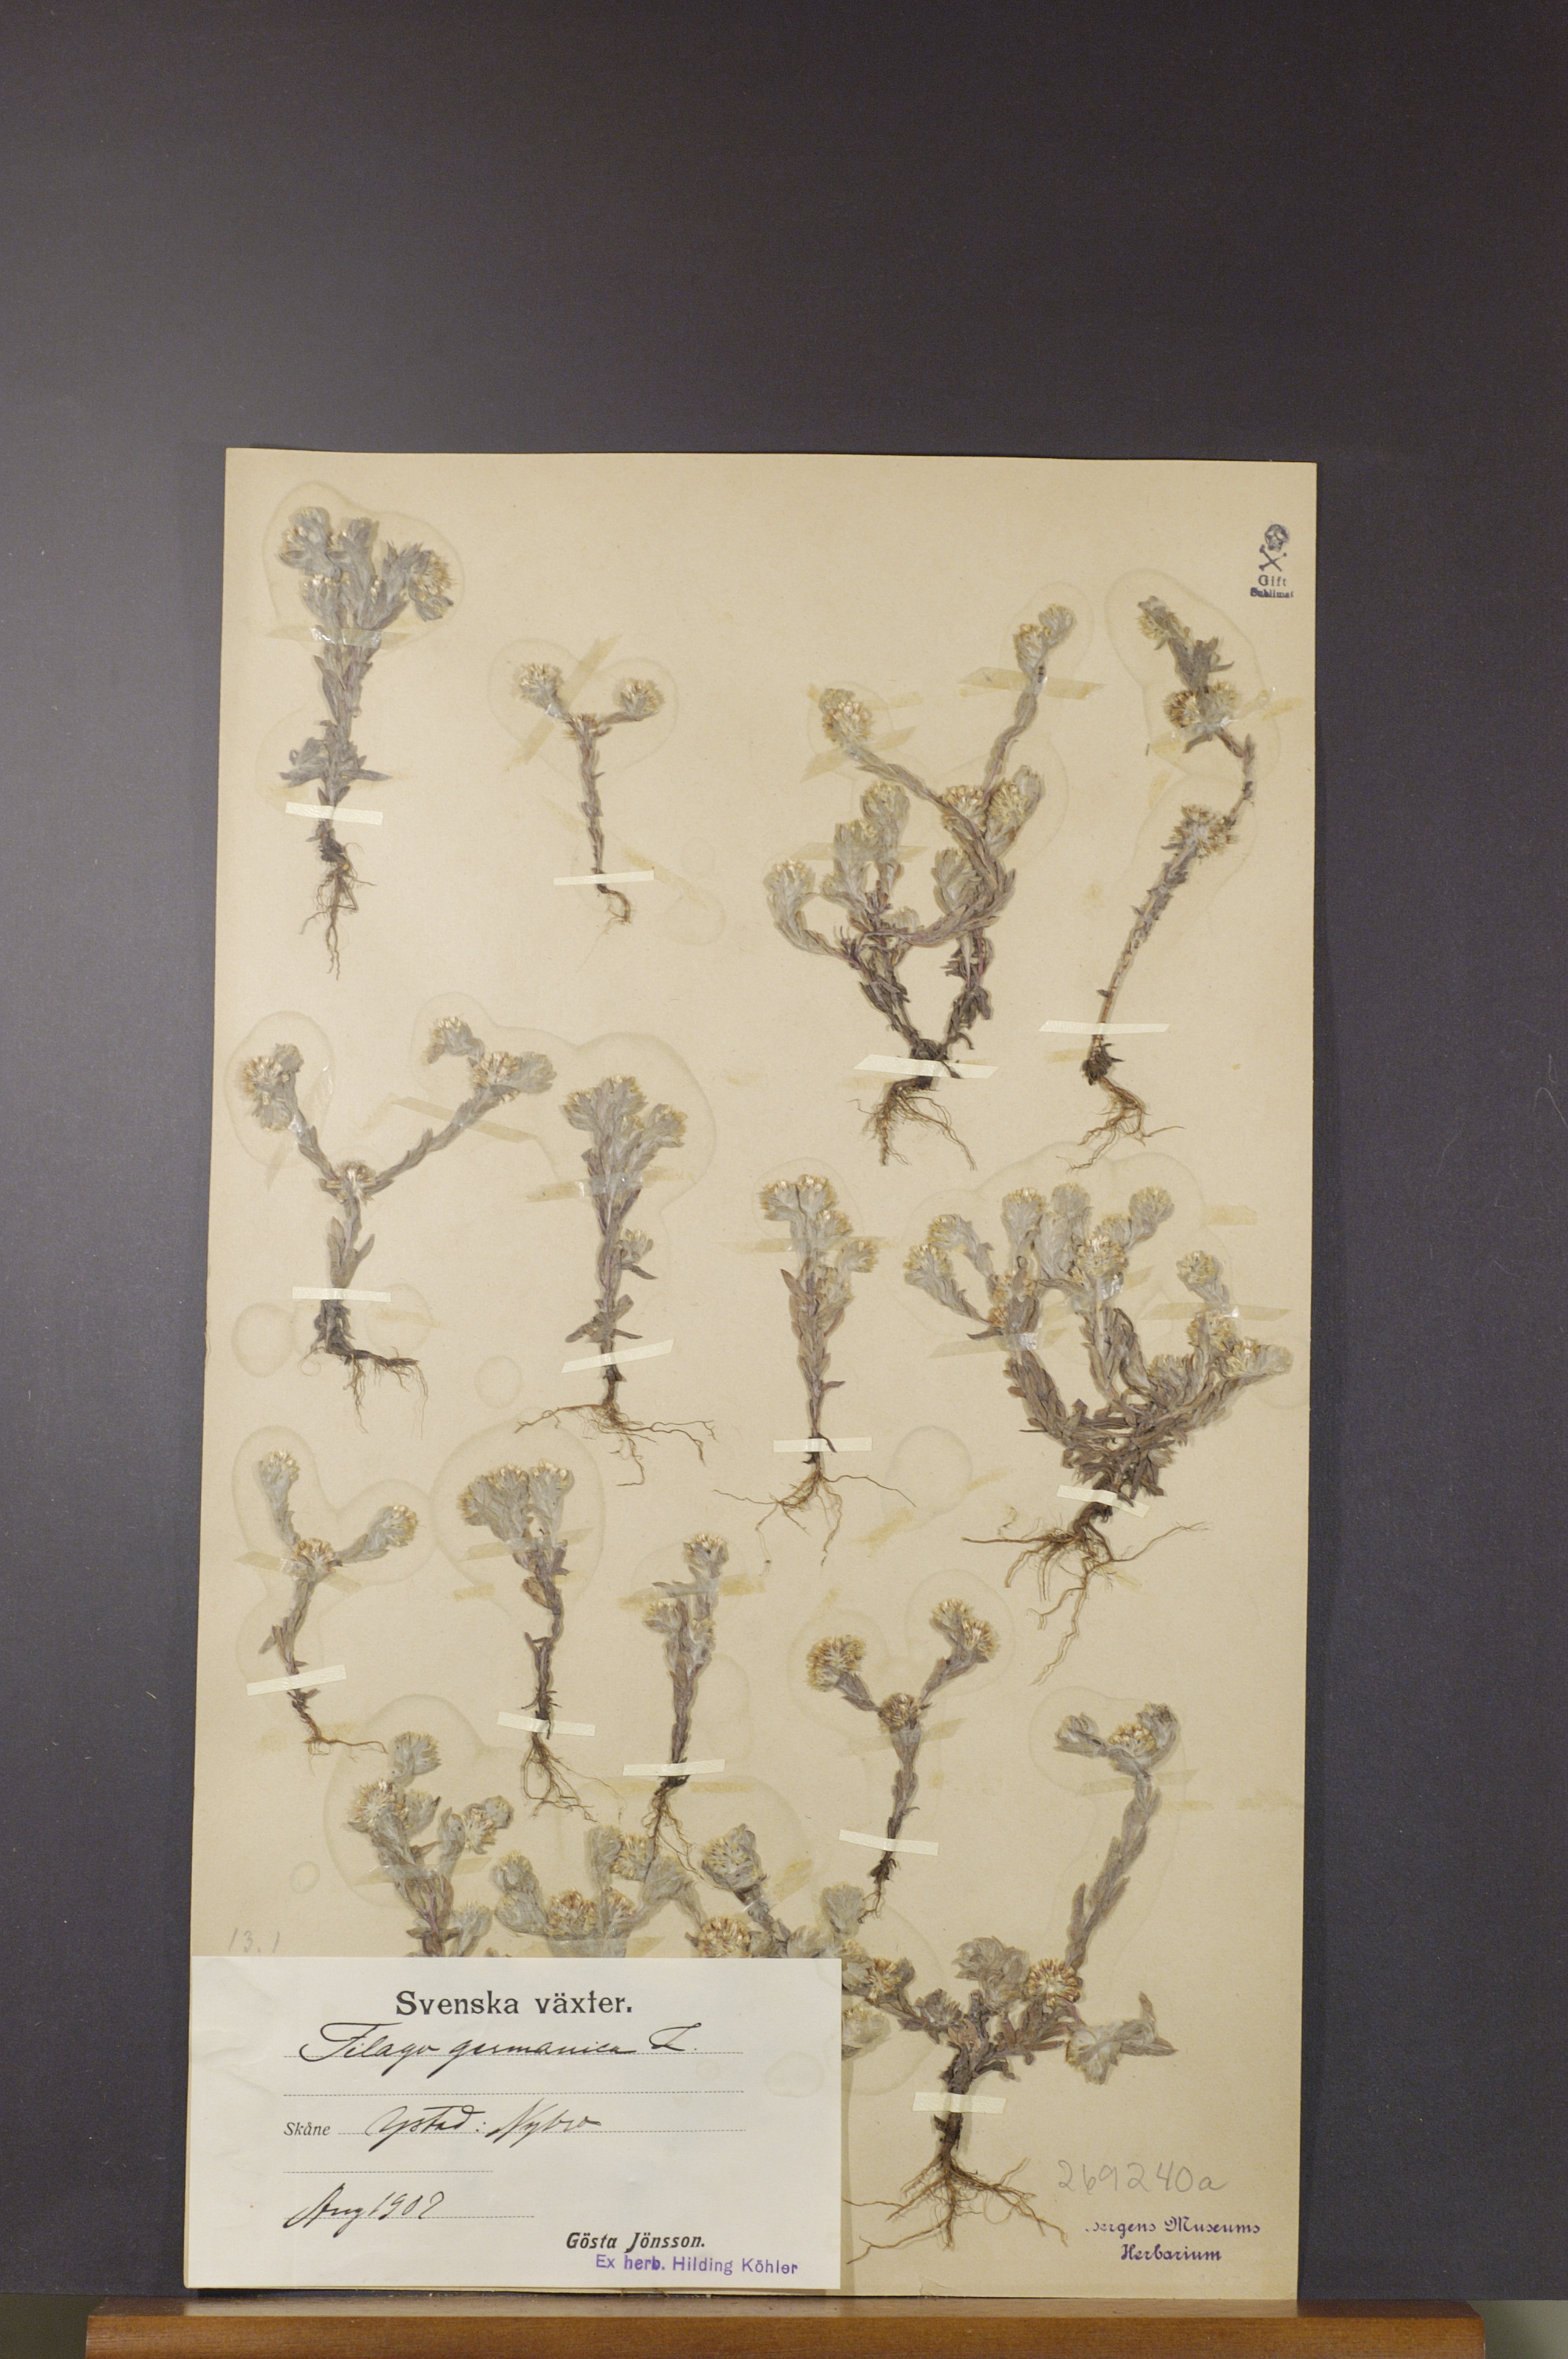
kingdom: Plantae
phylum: Tracheophyta
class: Magnoliopsida
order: Asterales
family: Asteraceae
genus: Filago
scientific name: Filago germanica
